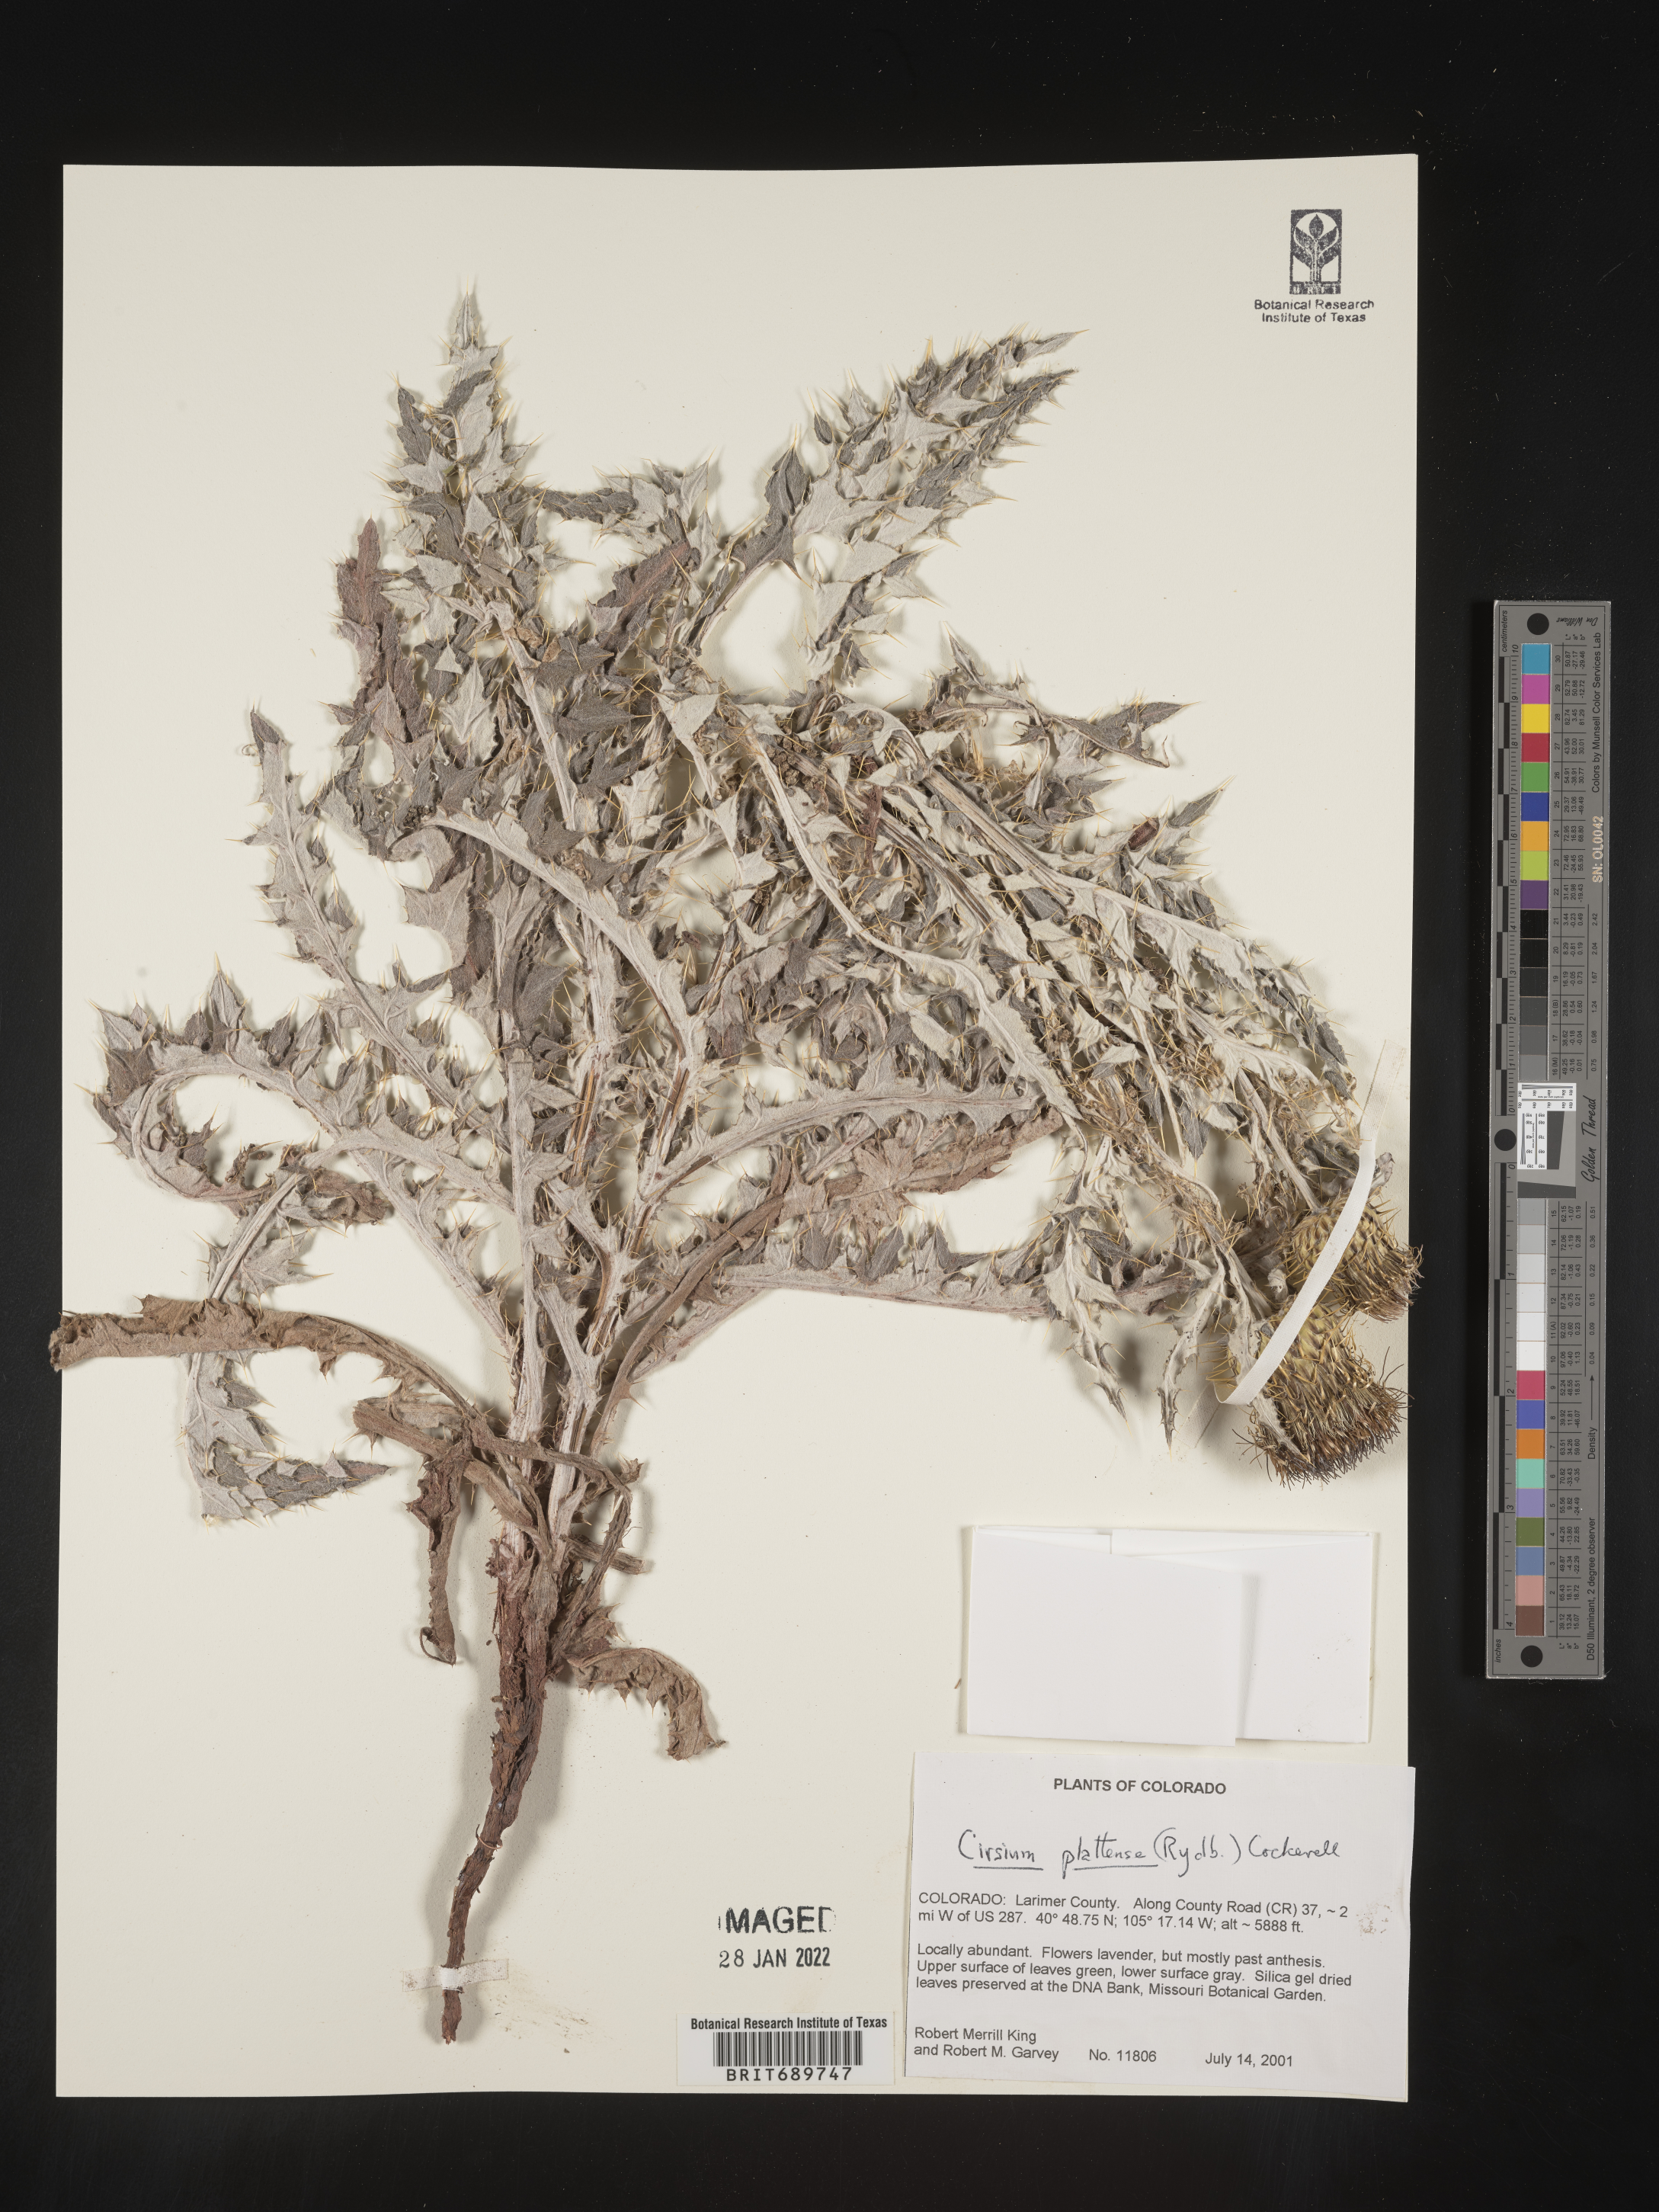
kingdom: Plantae
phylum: Tracheophyta
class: Magnoliopsida
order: Asterales
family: Asteraceae
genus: Cirsium
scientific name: Cirsium canescens
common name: Prairie thistle
